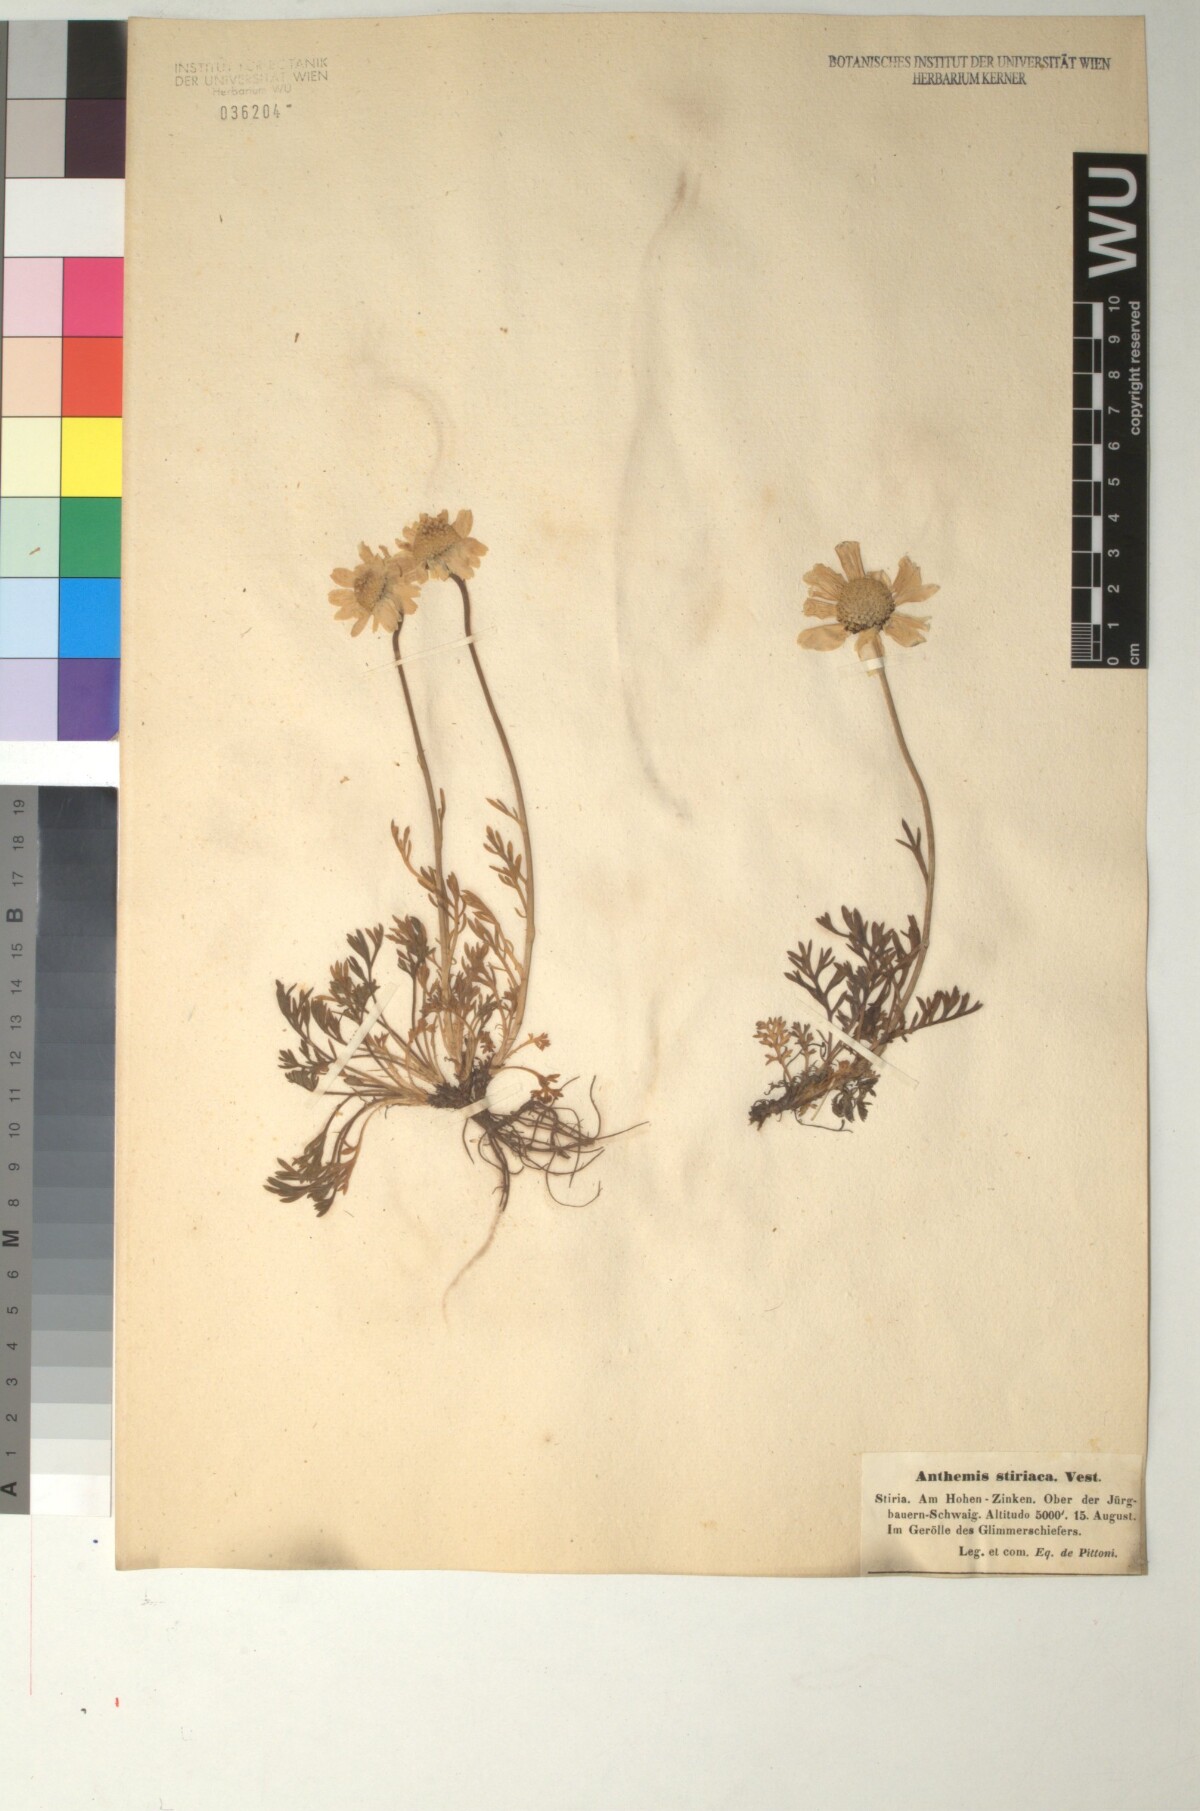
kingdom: Plantae
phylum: Tracheophyta
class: Magnoliopsida
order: Asterales
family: Asteraceae
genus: Anthemis
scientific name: Anthemis cretica
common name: Mountain dog-daisy
